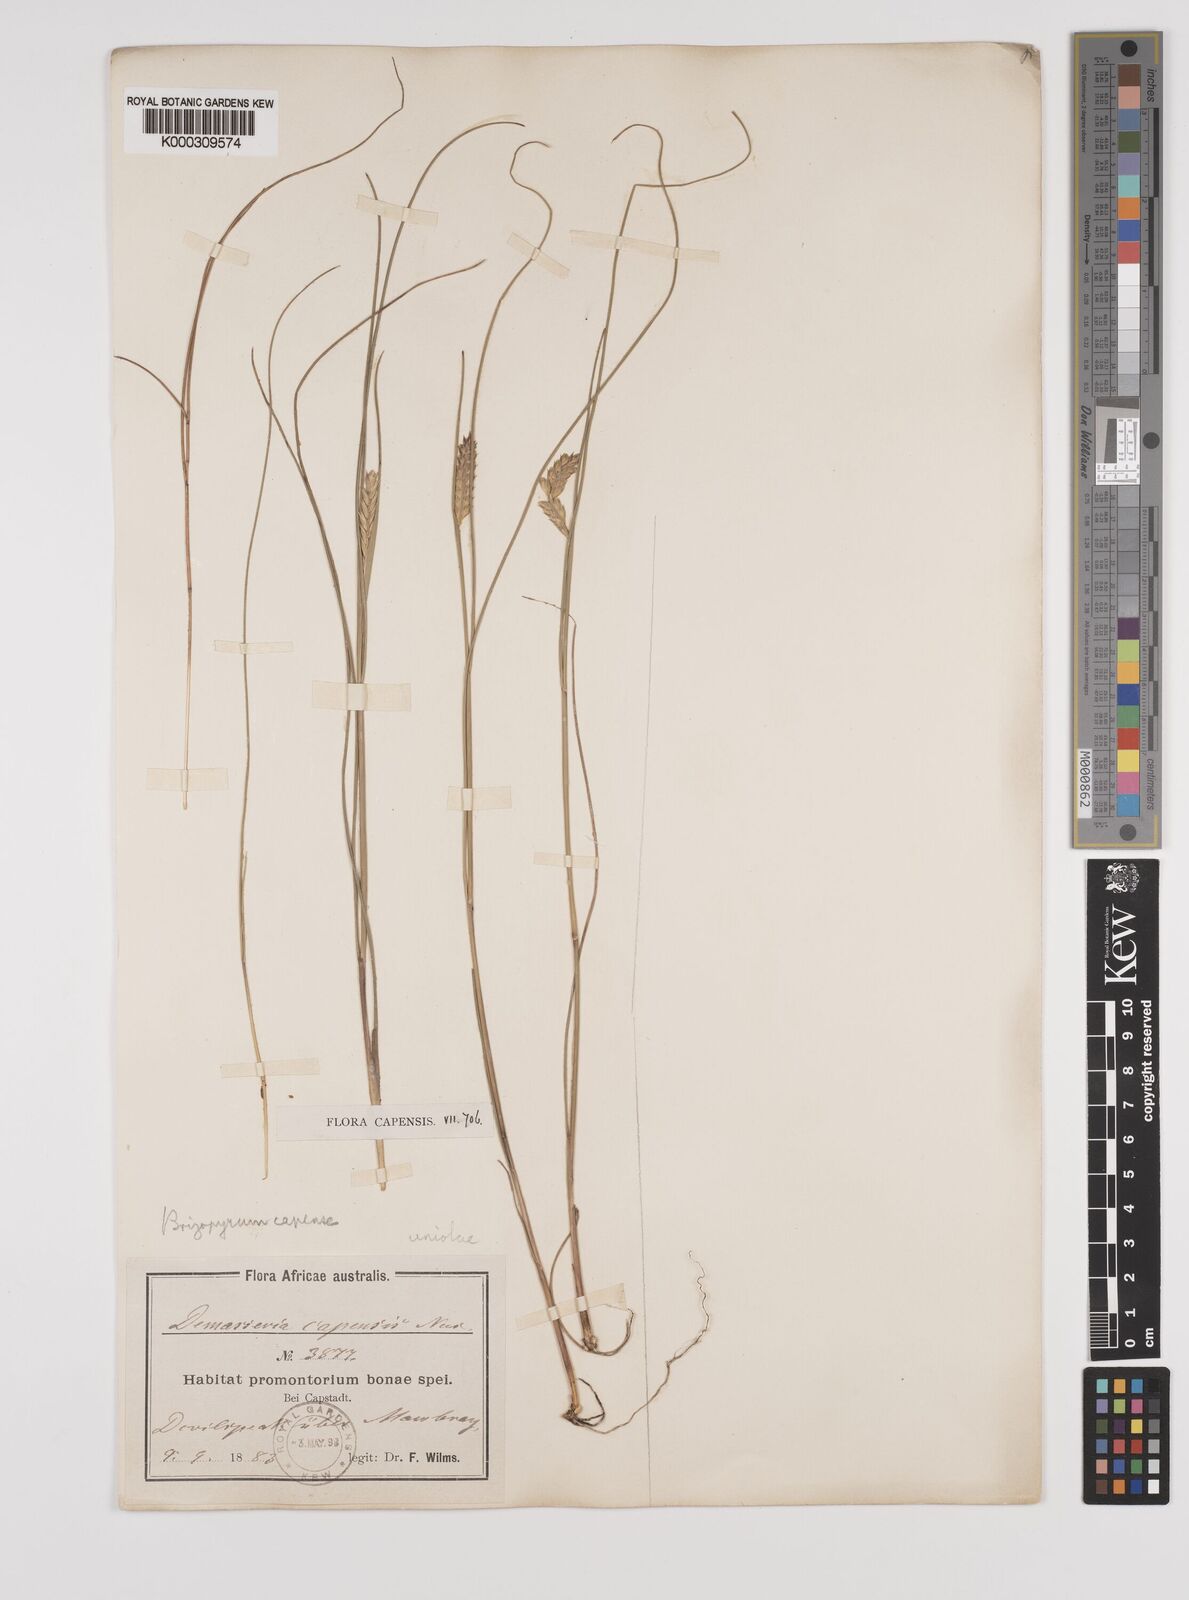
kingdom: Plantae
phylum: Tracheophyta
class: Liliopsida
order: Poales
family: Poaceae
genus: Tribolium
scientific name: Tribolium amplexum
